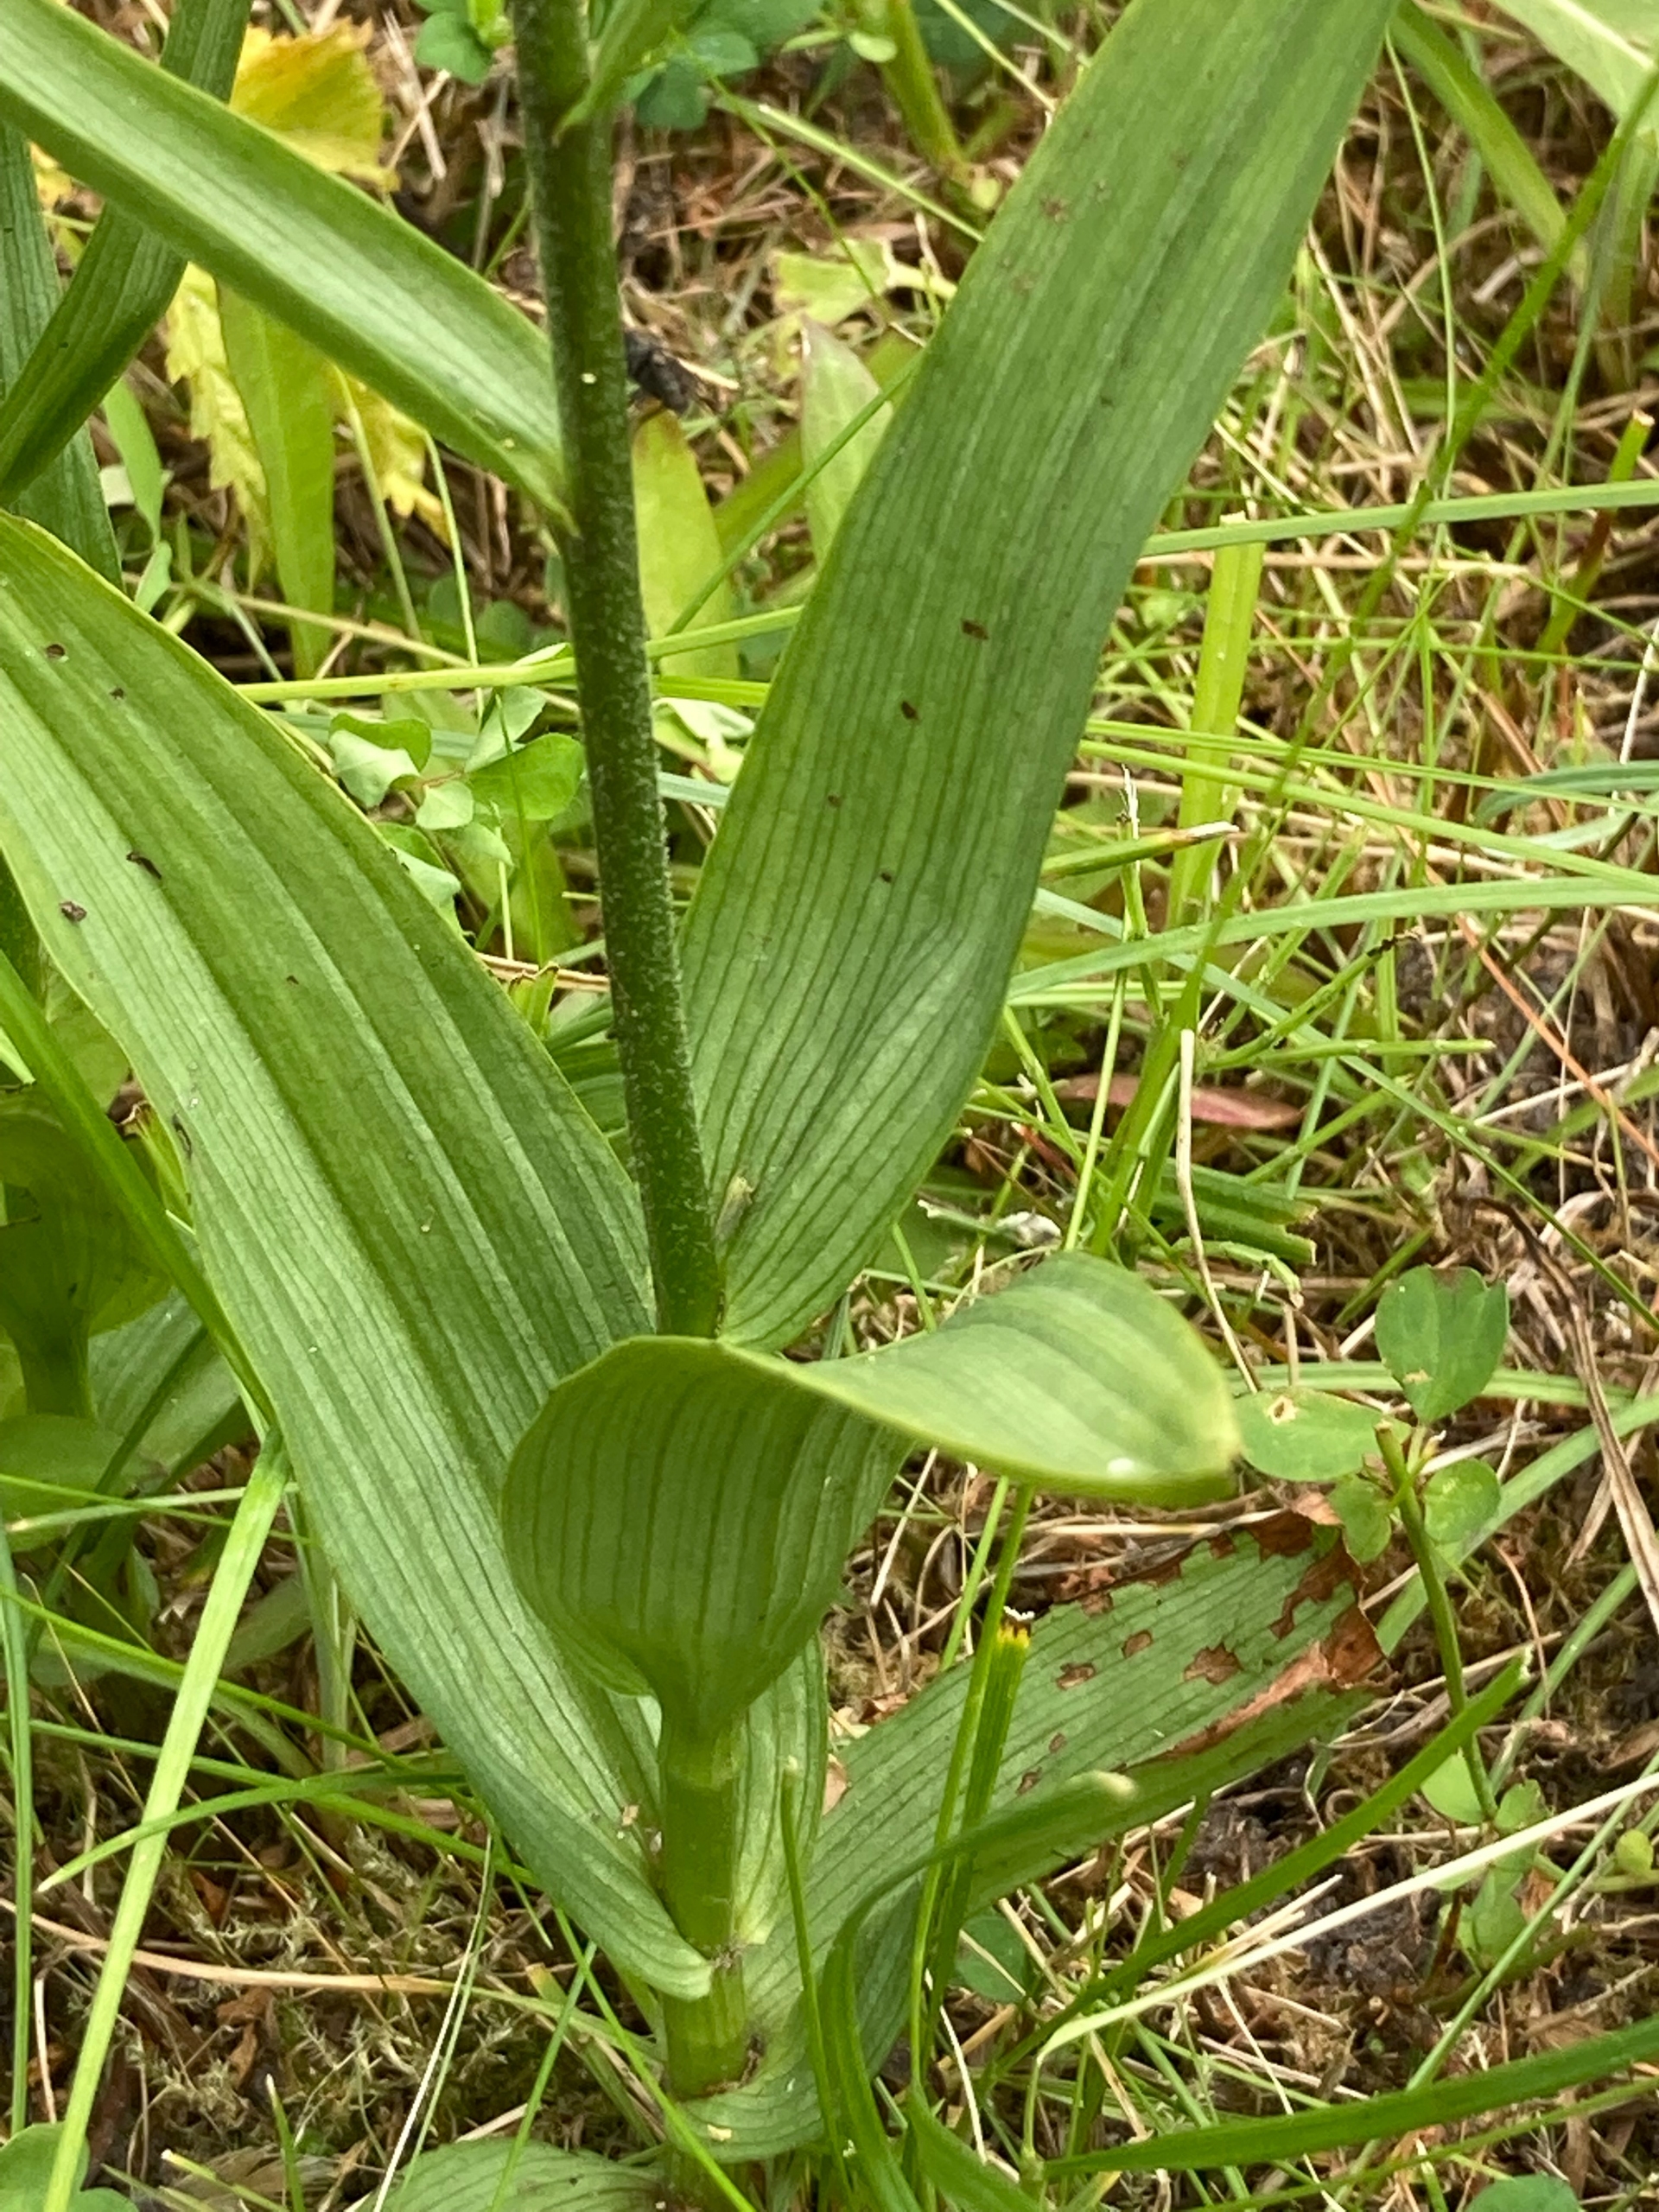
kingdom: Plantae
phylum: Tracheophyta
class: Liliopsida
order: Asparagales
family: Orchidaceae
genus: Epipactis
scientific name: Epipactis palustris
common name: Sump-hullæbe
